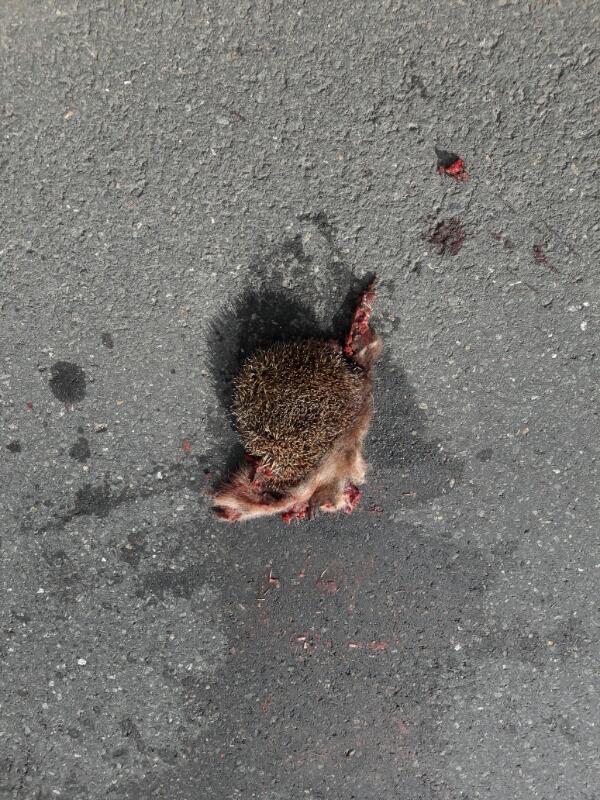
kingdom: Animalia
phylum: Chordata
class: Mammalia
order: Erinaceomorpha
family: Erinaceidae
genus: Erinaceus
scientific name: Erinaceus
